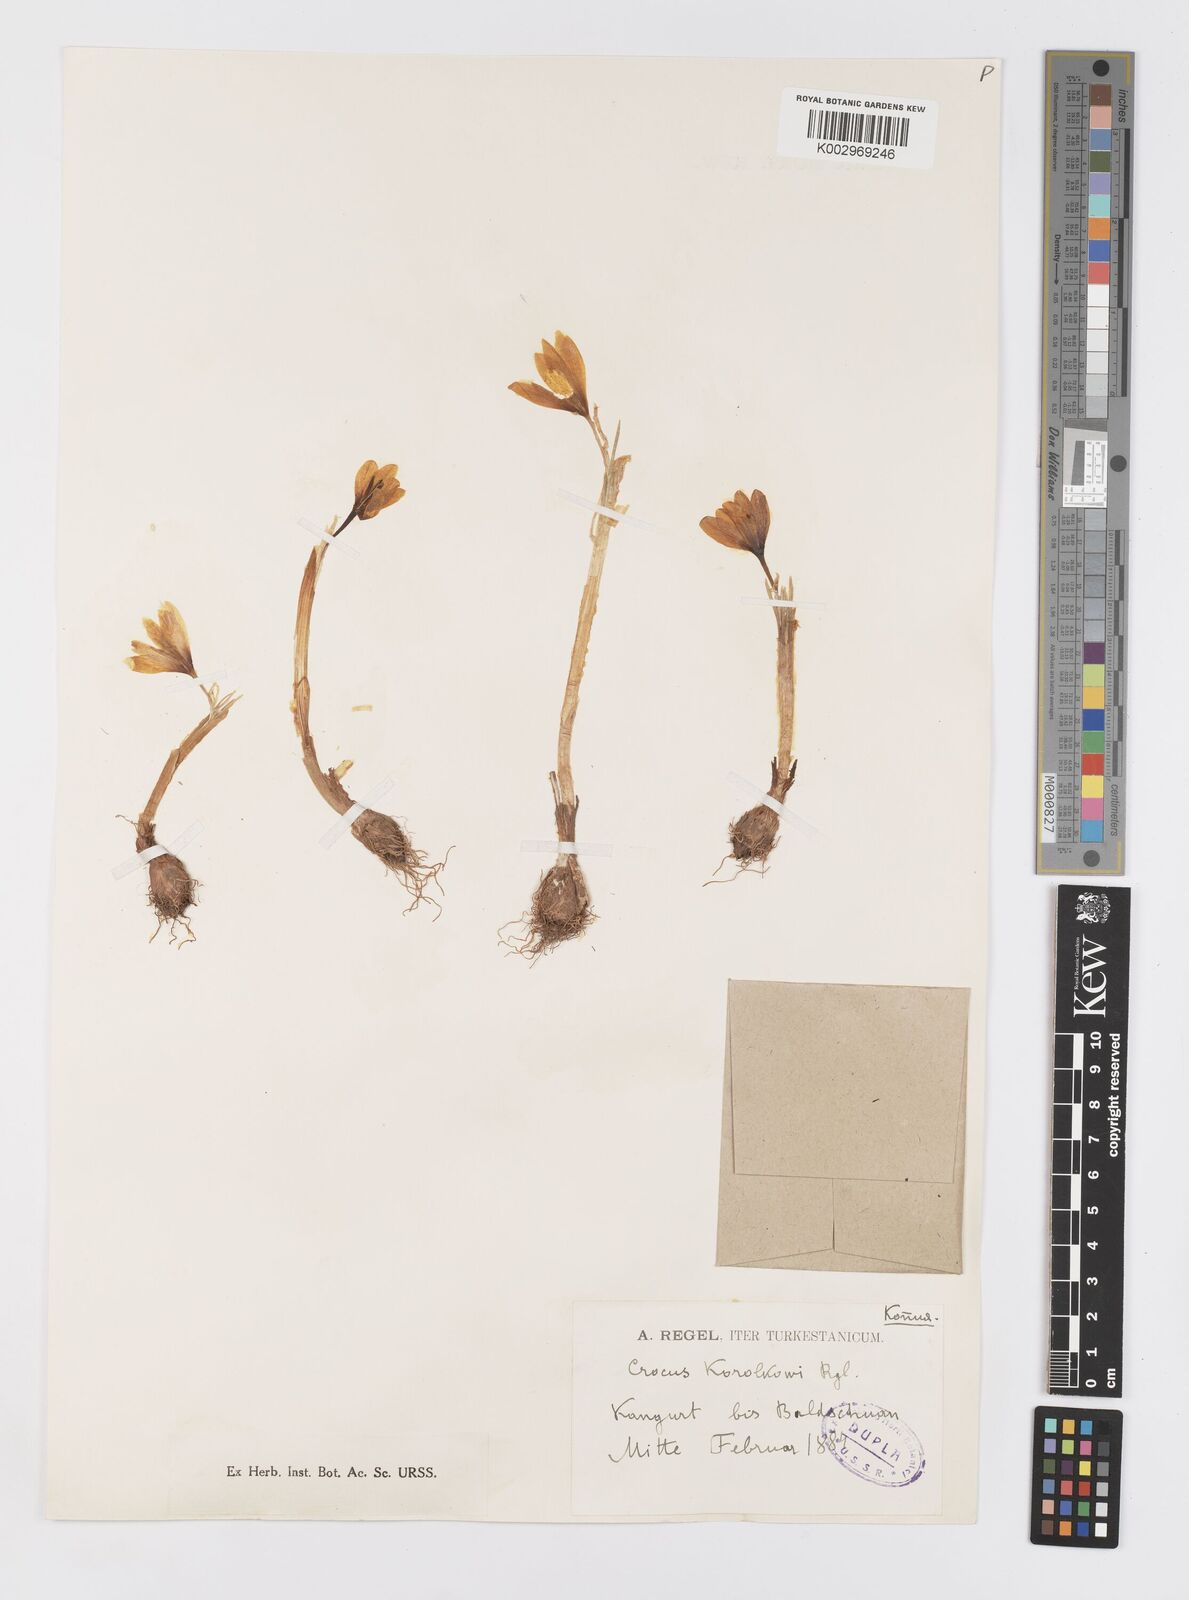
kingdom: Plantae
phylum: Tracheophyta
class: Liliopsida
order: Asparagales
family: Iridaceae
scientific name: Iridaceae
